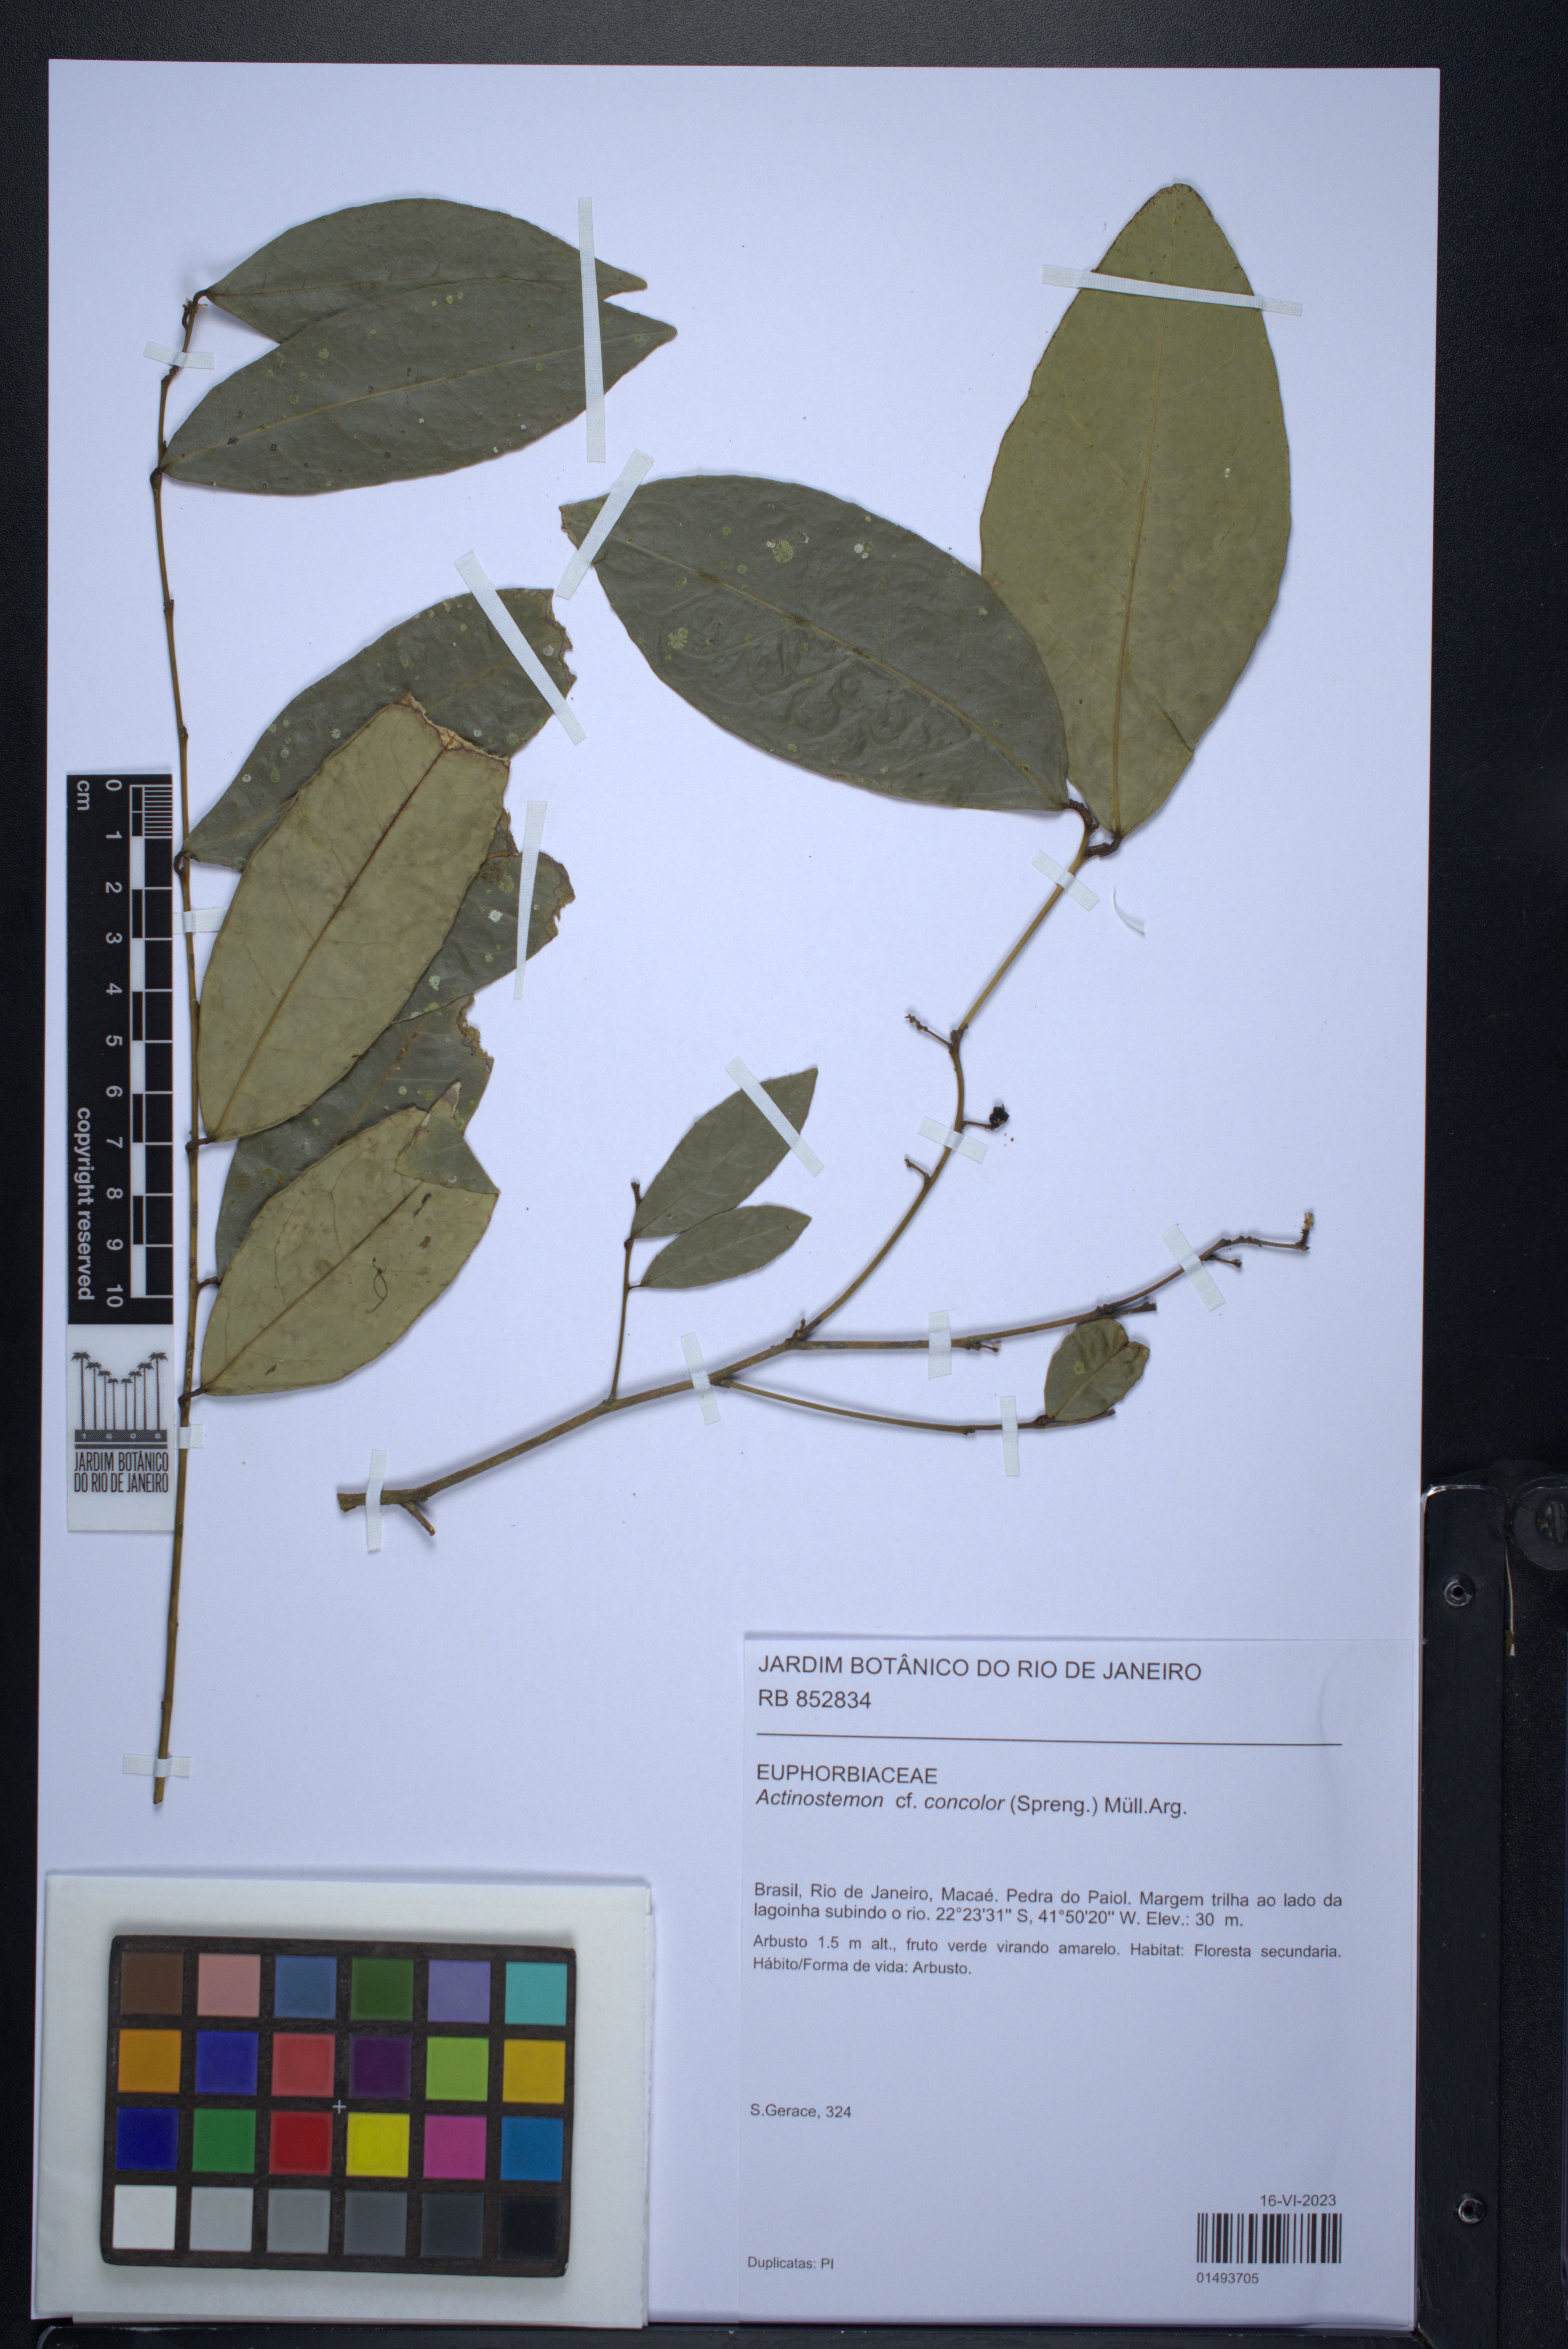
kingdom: Plantae
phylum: Tracheophyta
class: Magnoliopsida
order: Malpighiales
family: Euphorbiaceae
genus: Actinostemon
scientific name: Actinostemon concolor
